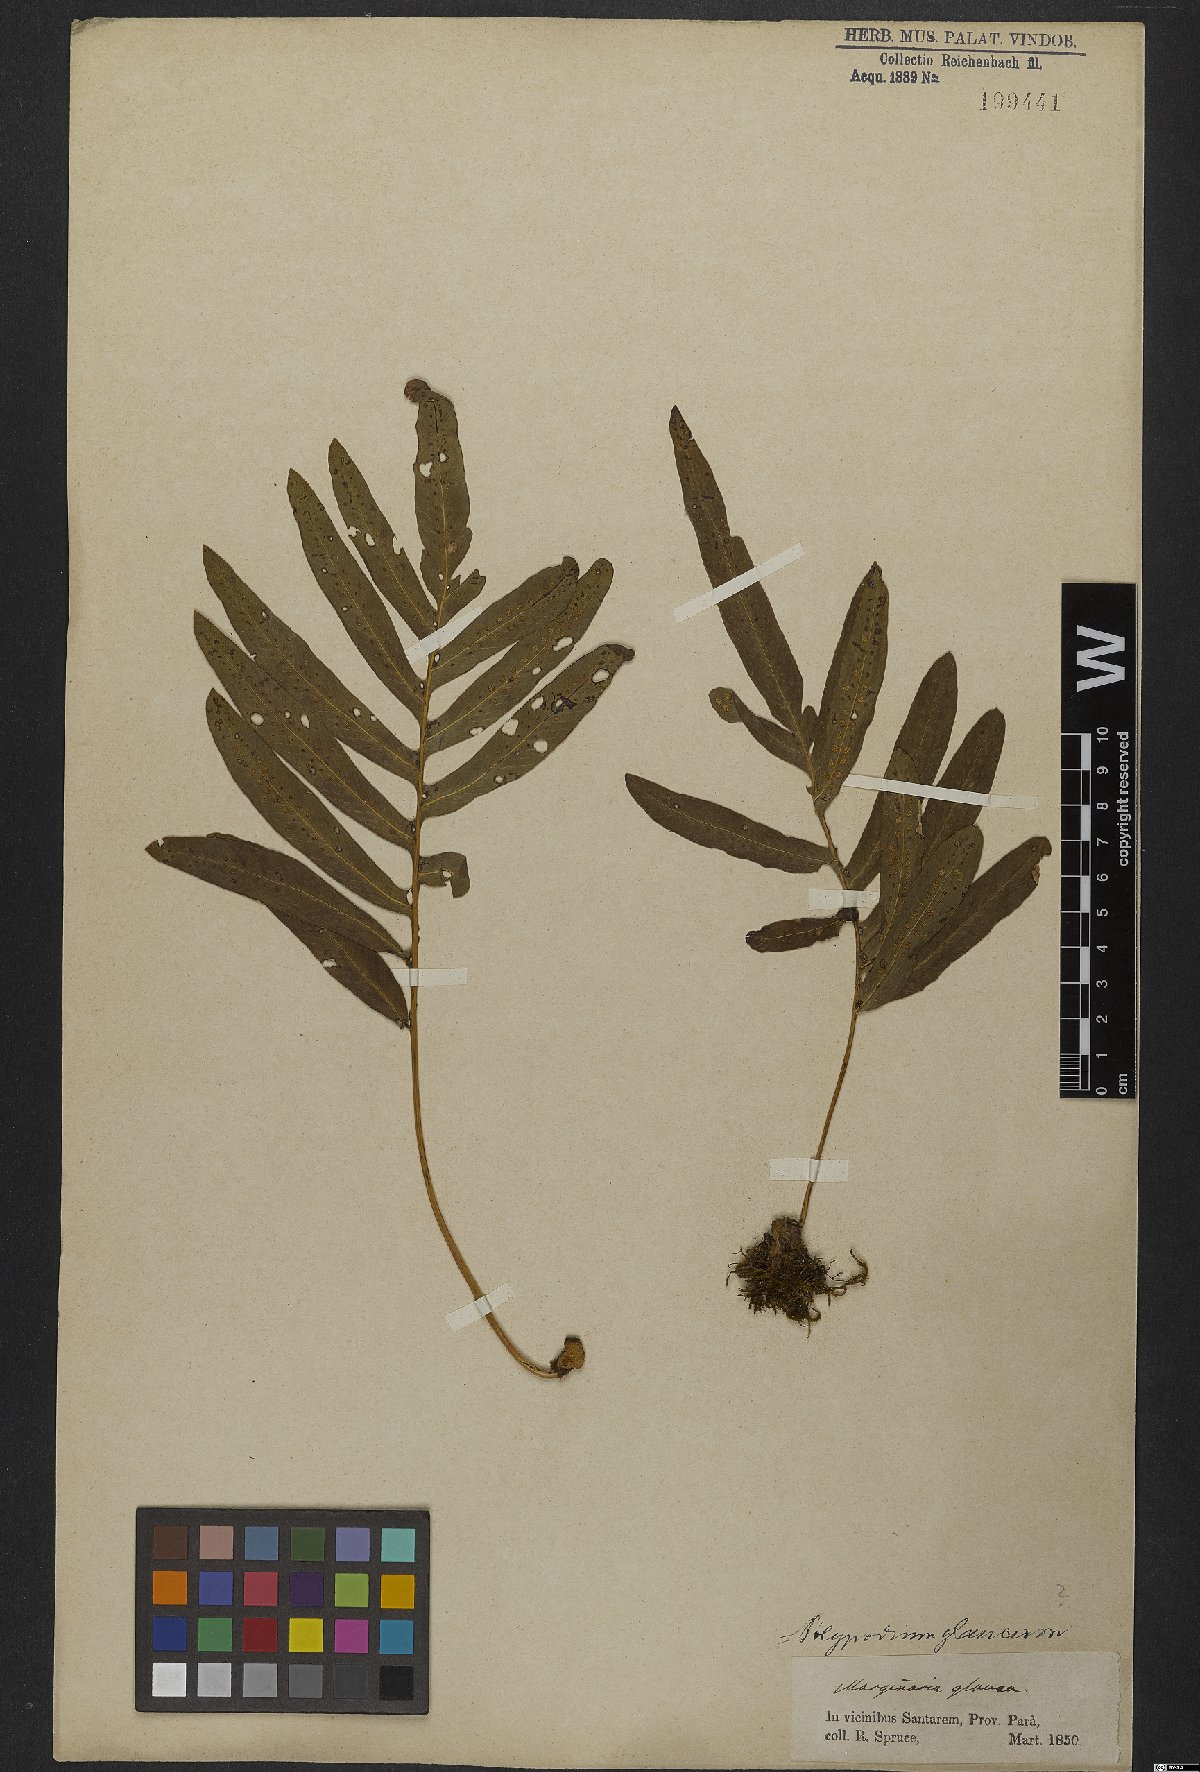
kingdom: Plantae
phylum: Tracheophyta
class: Polypodiopsida
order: Polypodiales
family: Polypodiaceae
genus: Serpocaulon
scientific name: Serpocaulon catharinae
